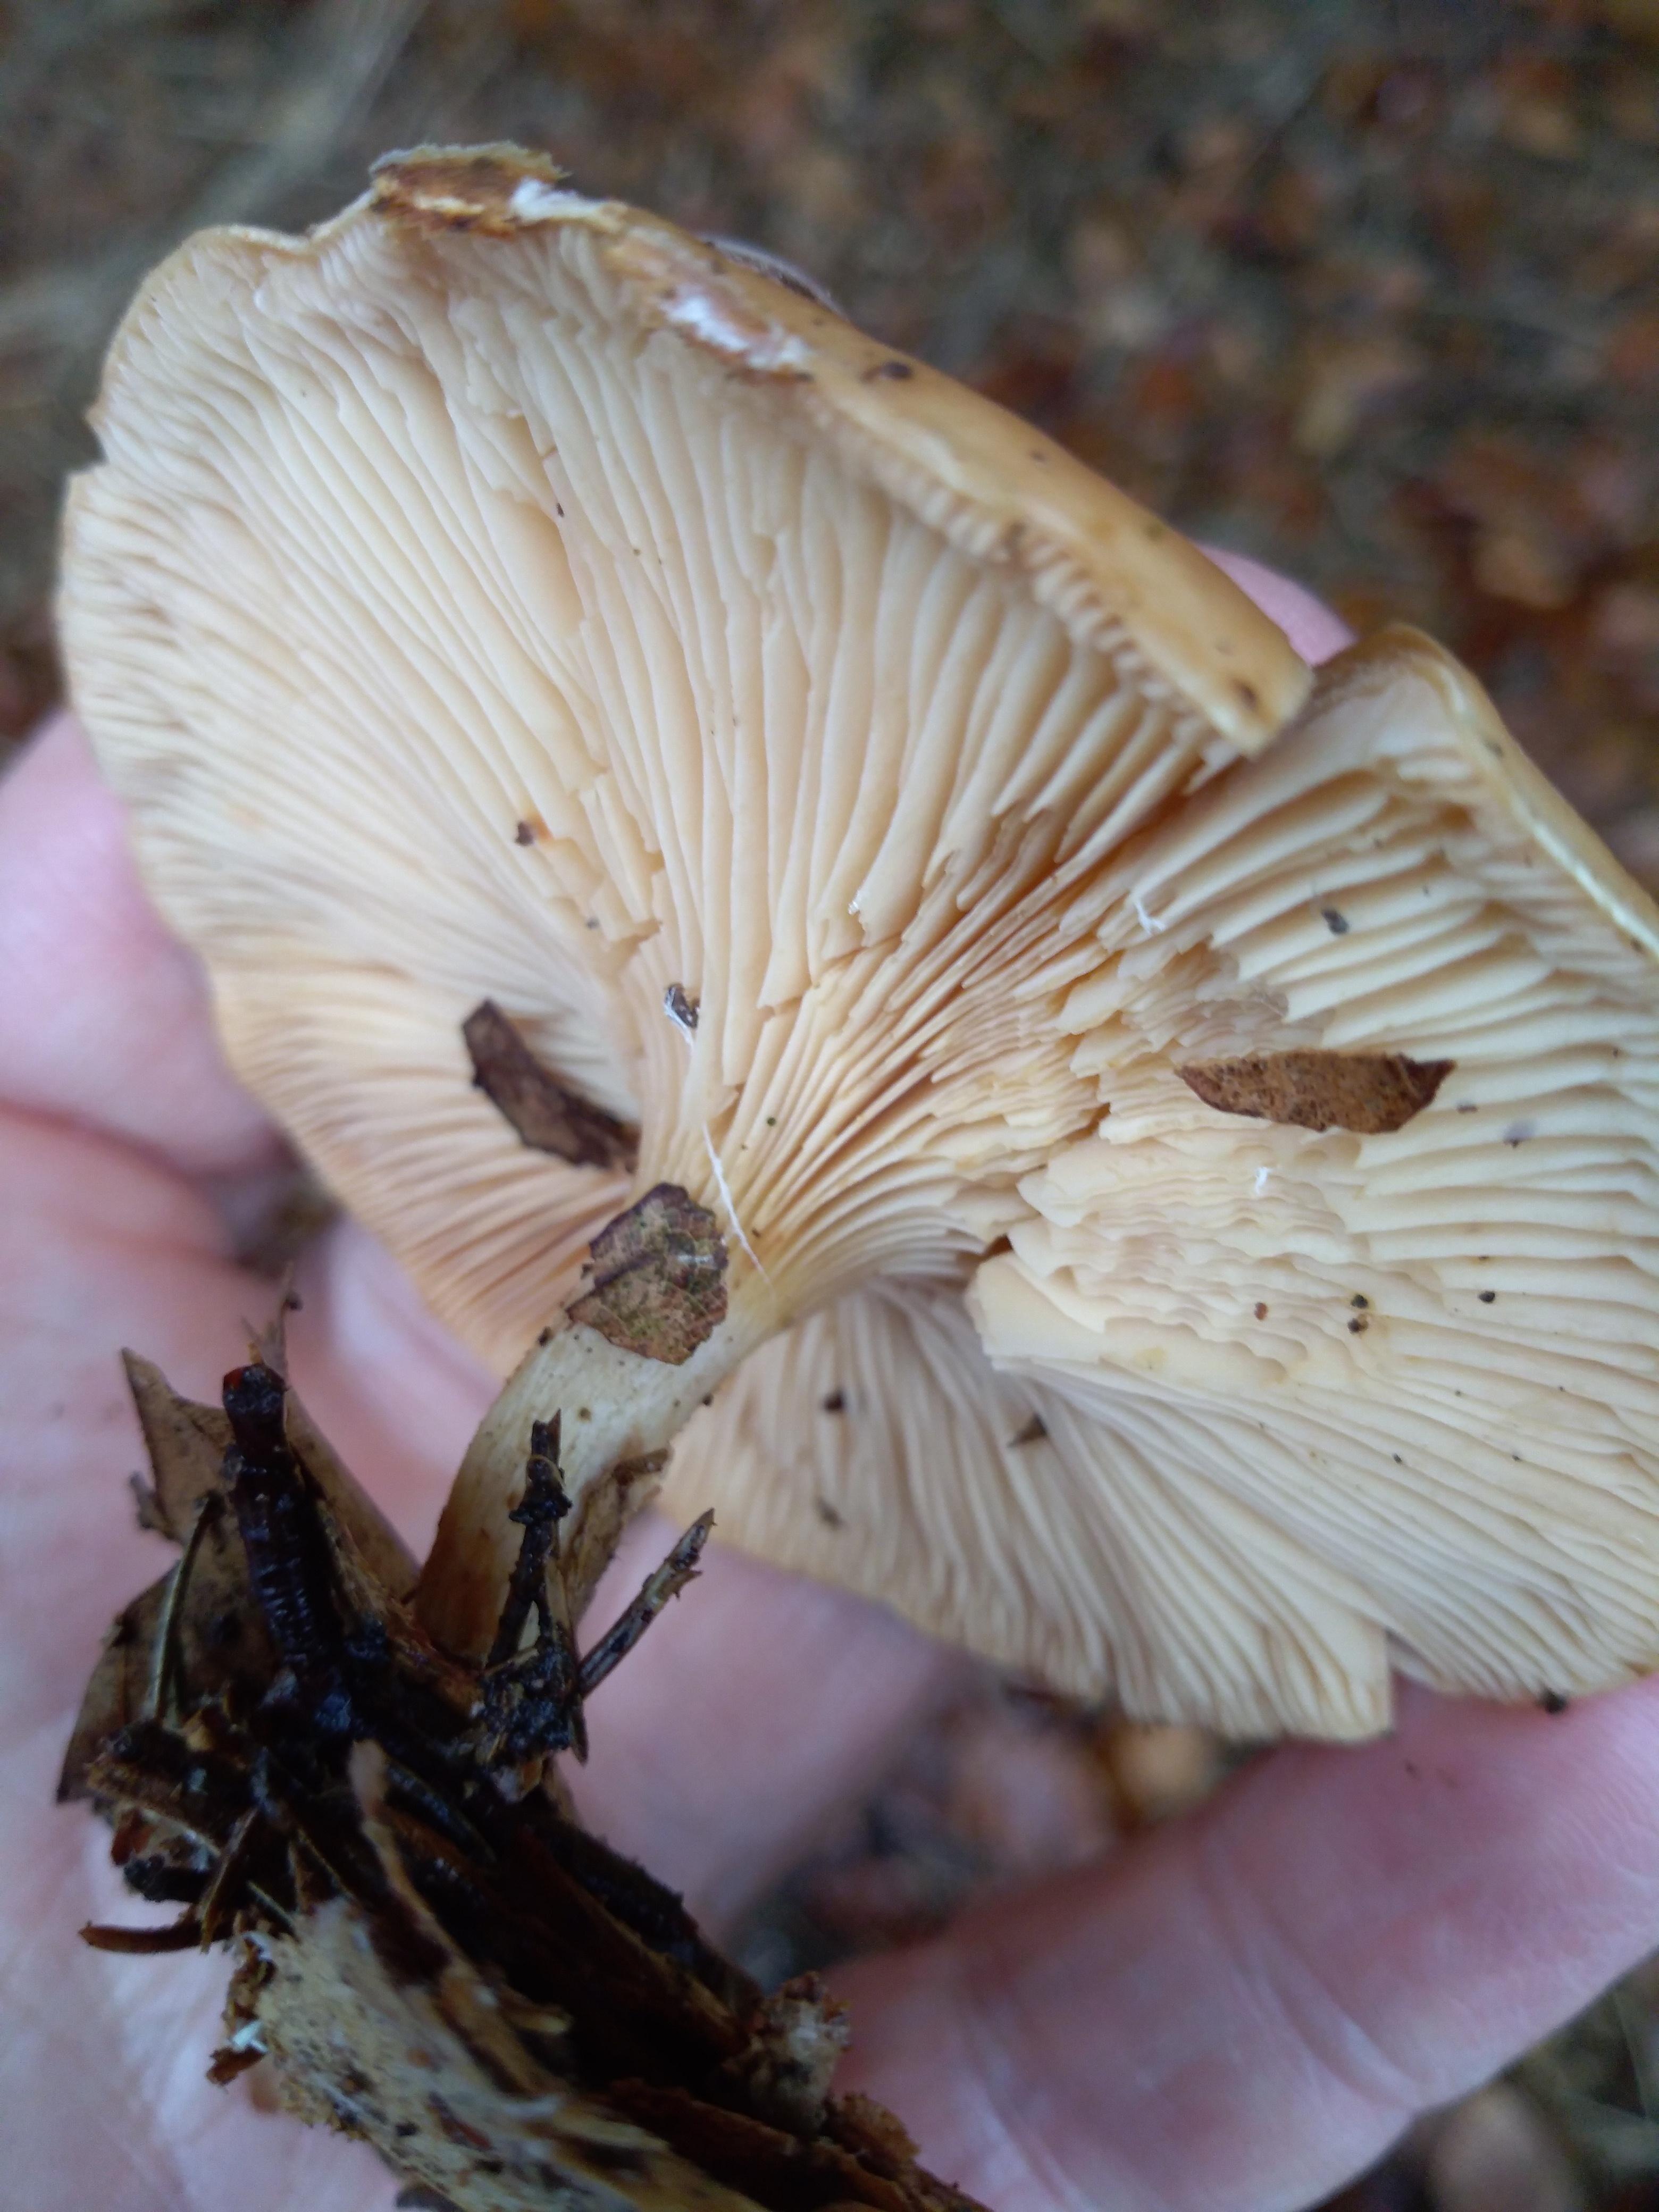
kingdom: Fungi
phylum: Basidiomycota
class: Agaricomycetes
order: Agaricales
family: Tricholomataceae
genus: Paralepista
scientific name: Paralepista flaccida
